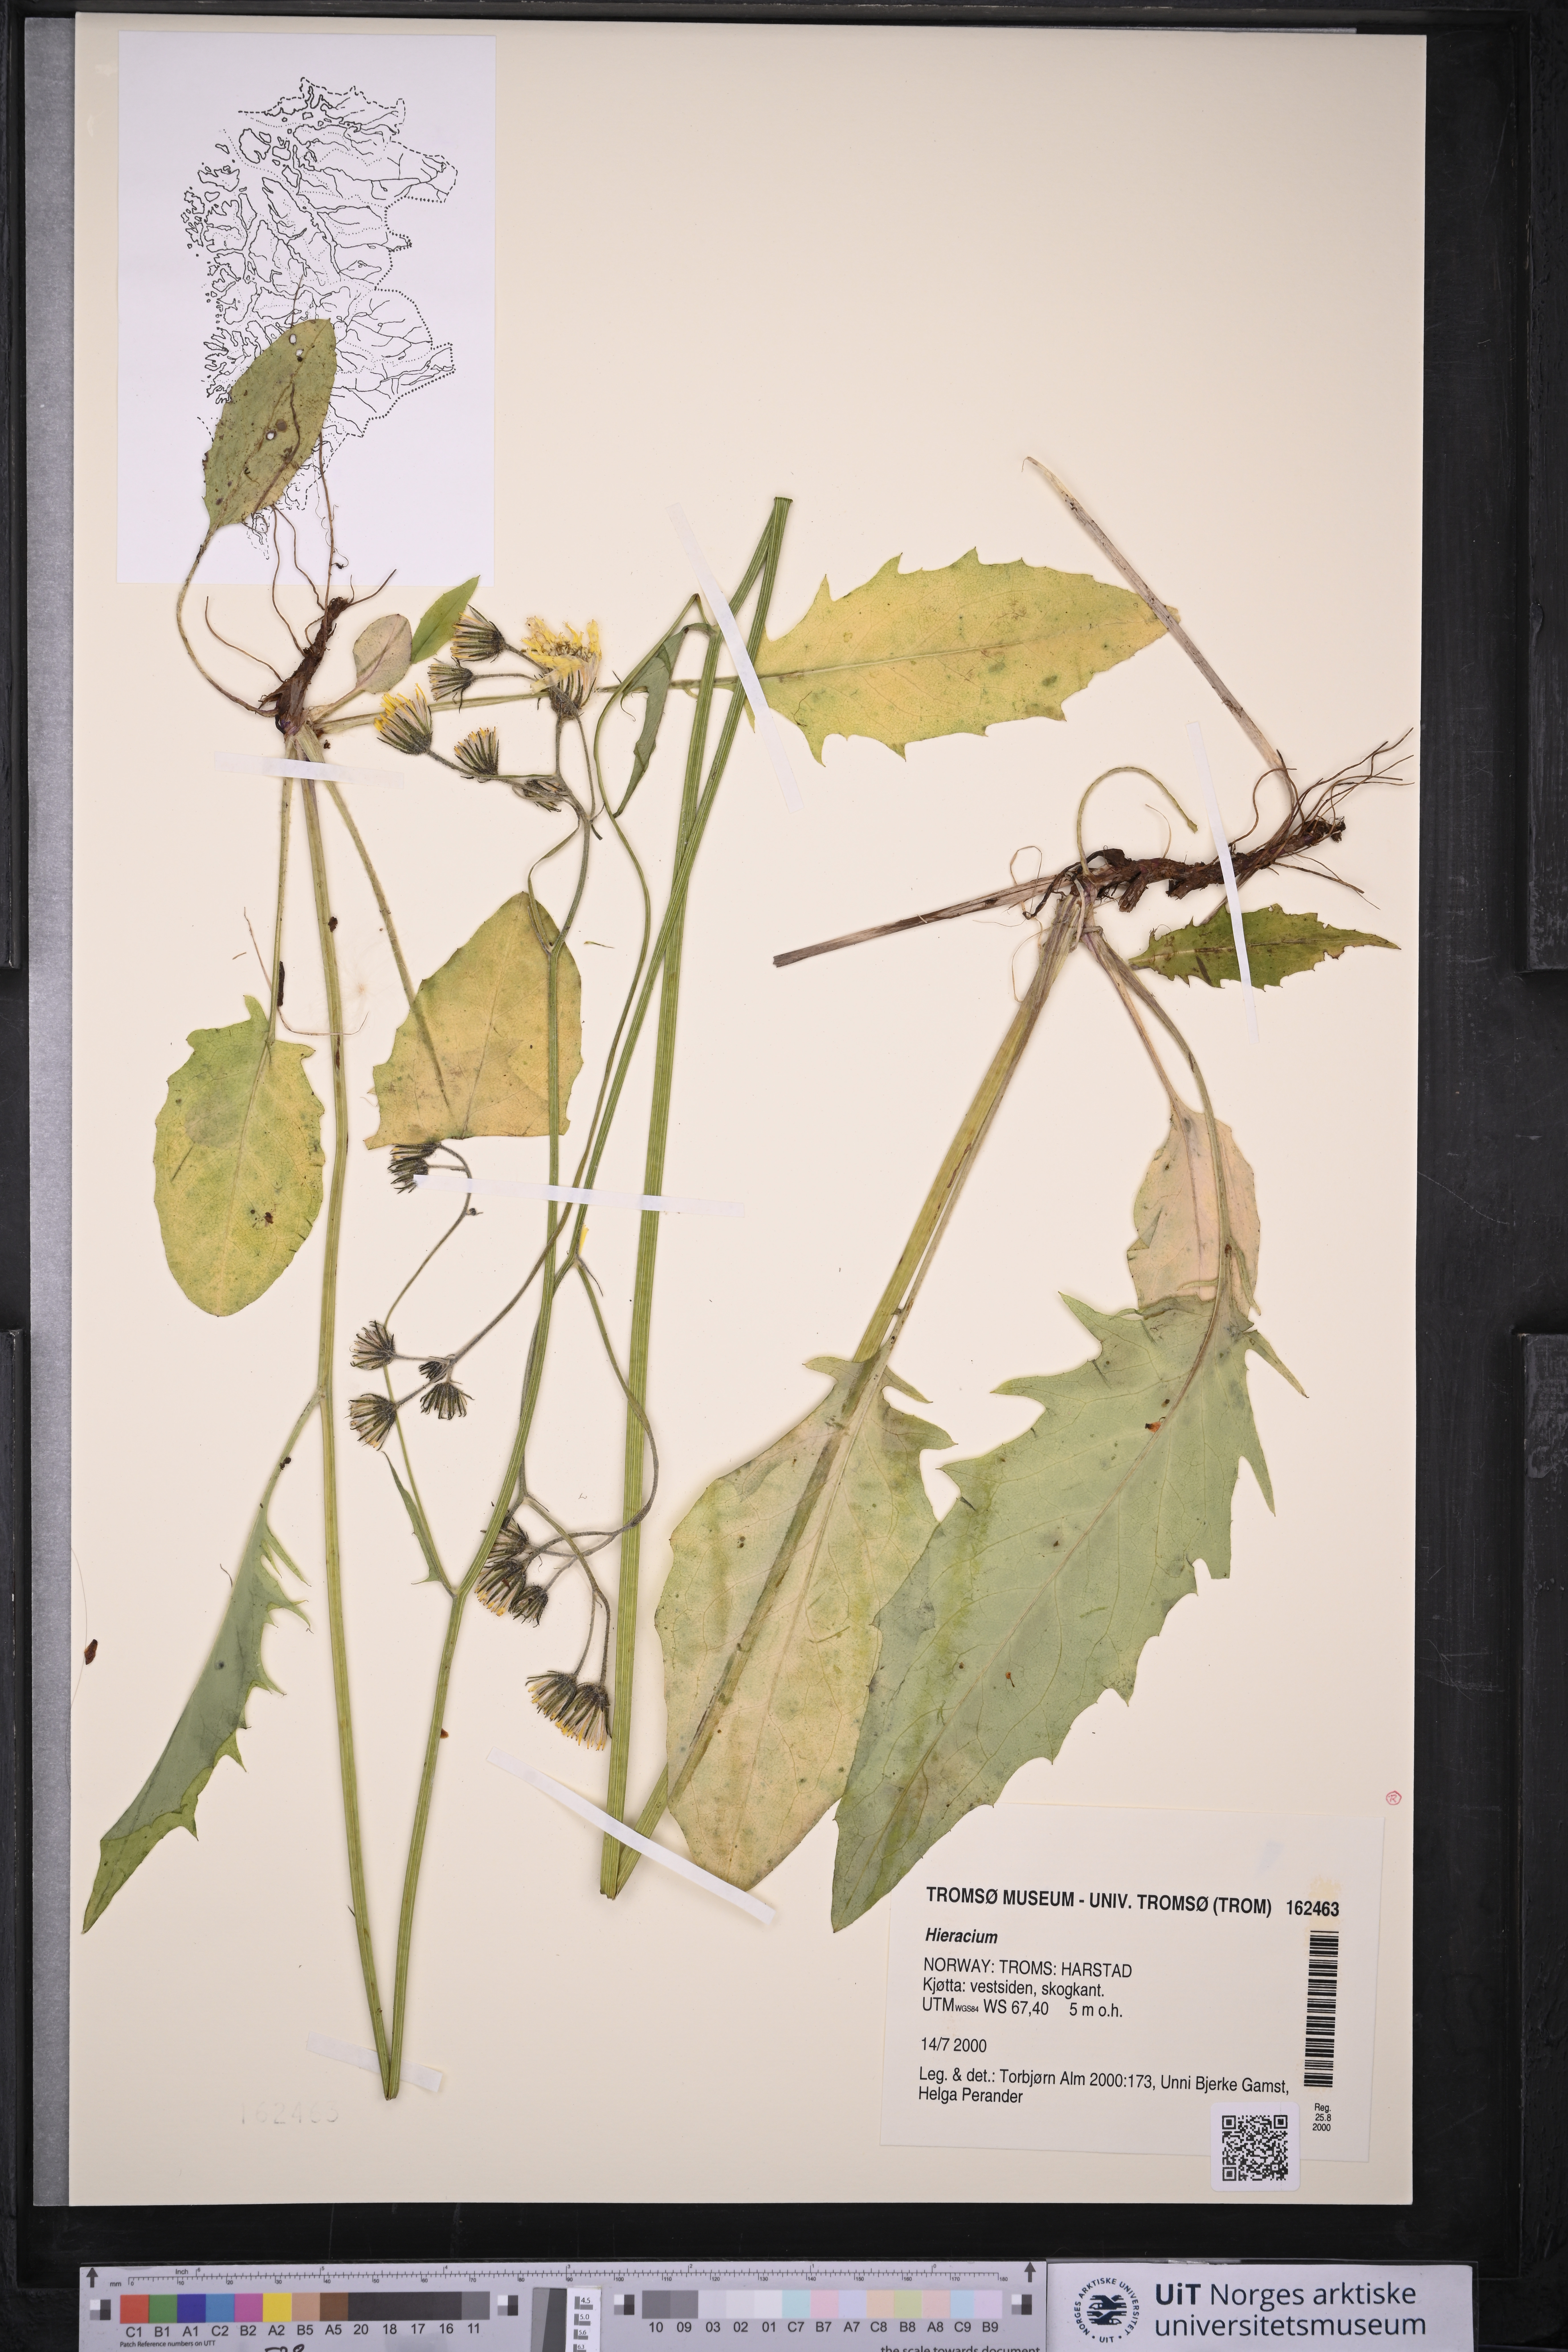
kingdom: Plantae
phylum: Tracheophyta
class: Magnoliopsida
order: Asterales
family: Asteraceae
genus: Hieracium
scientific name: Hieracium
